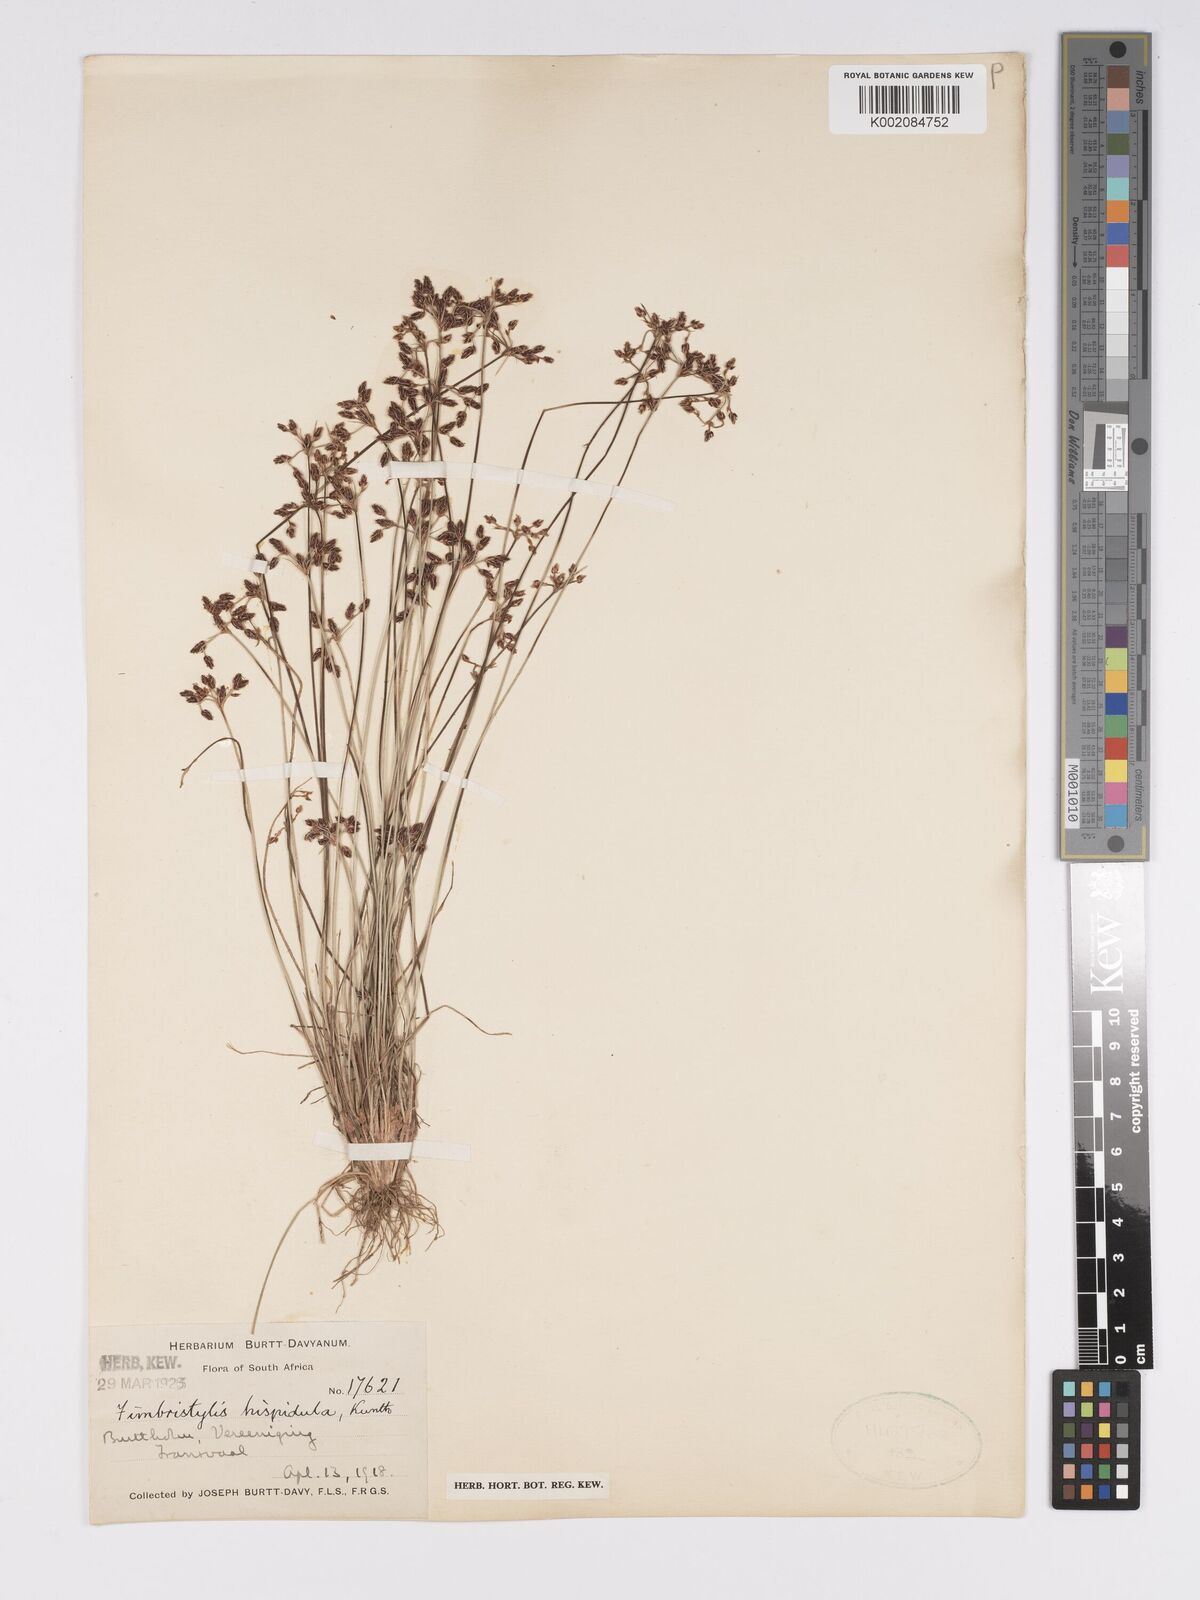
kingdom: Plantae
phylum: Tracheophyta
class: Liliopsida
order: Poales
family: Cyperaceae
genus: Bulbostylis
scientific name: Bulbostylis
